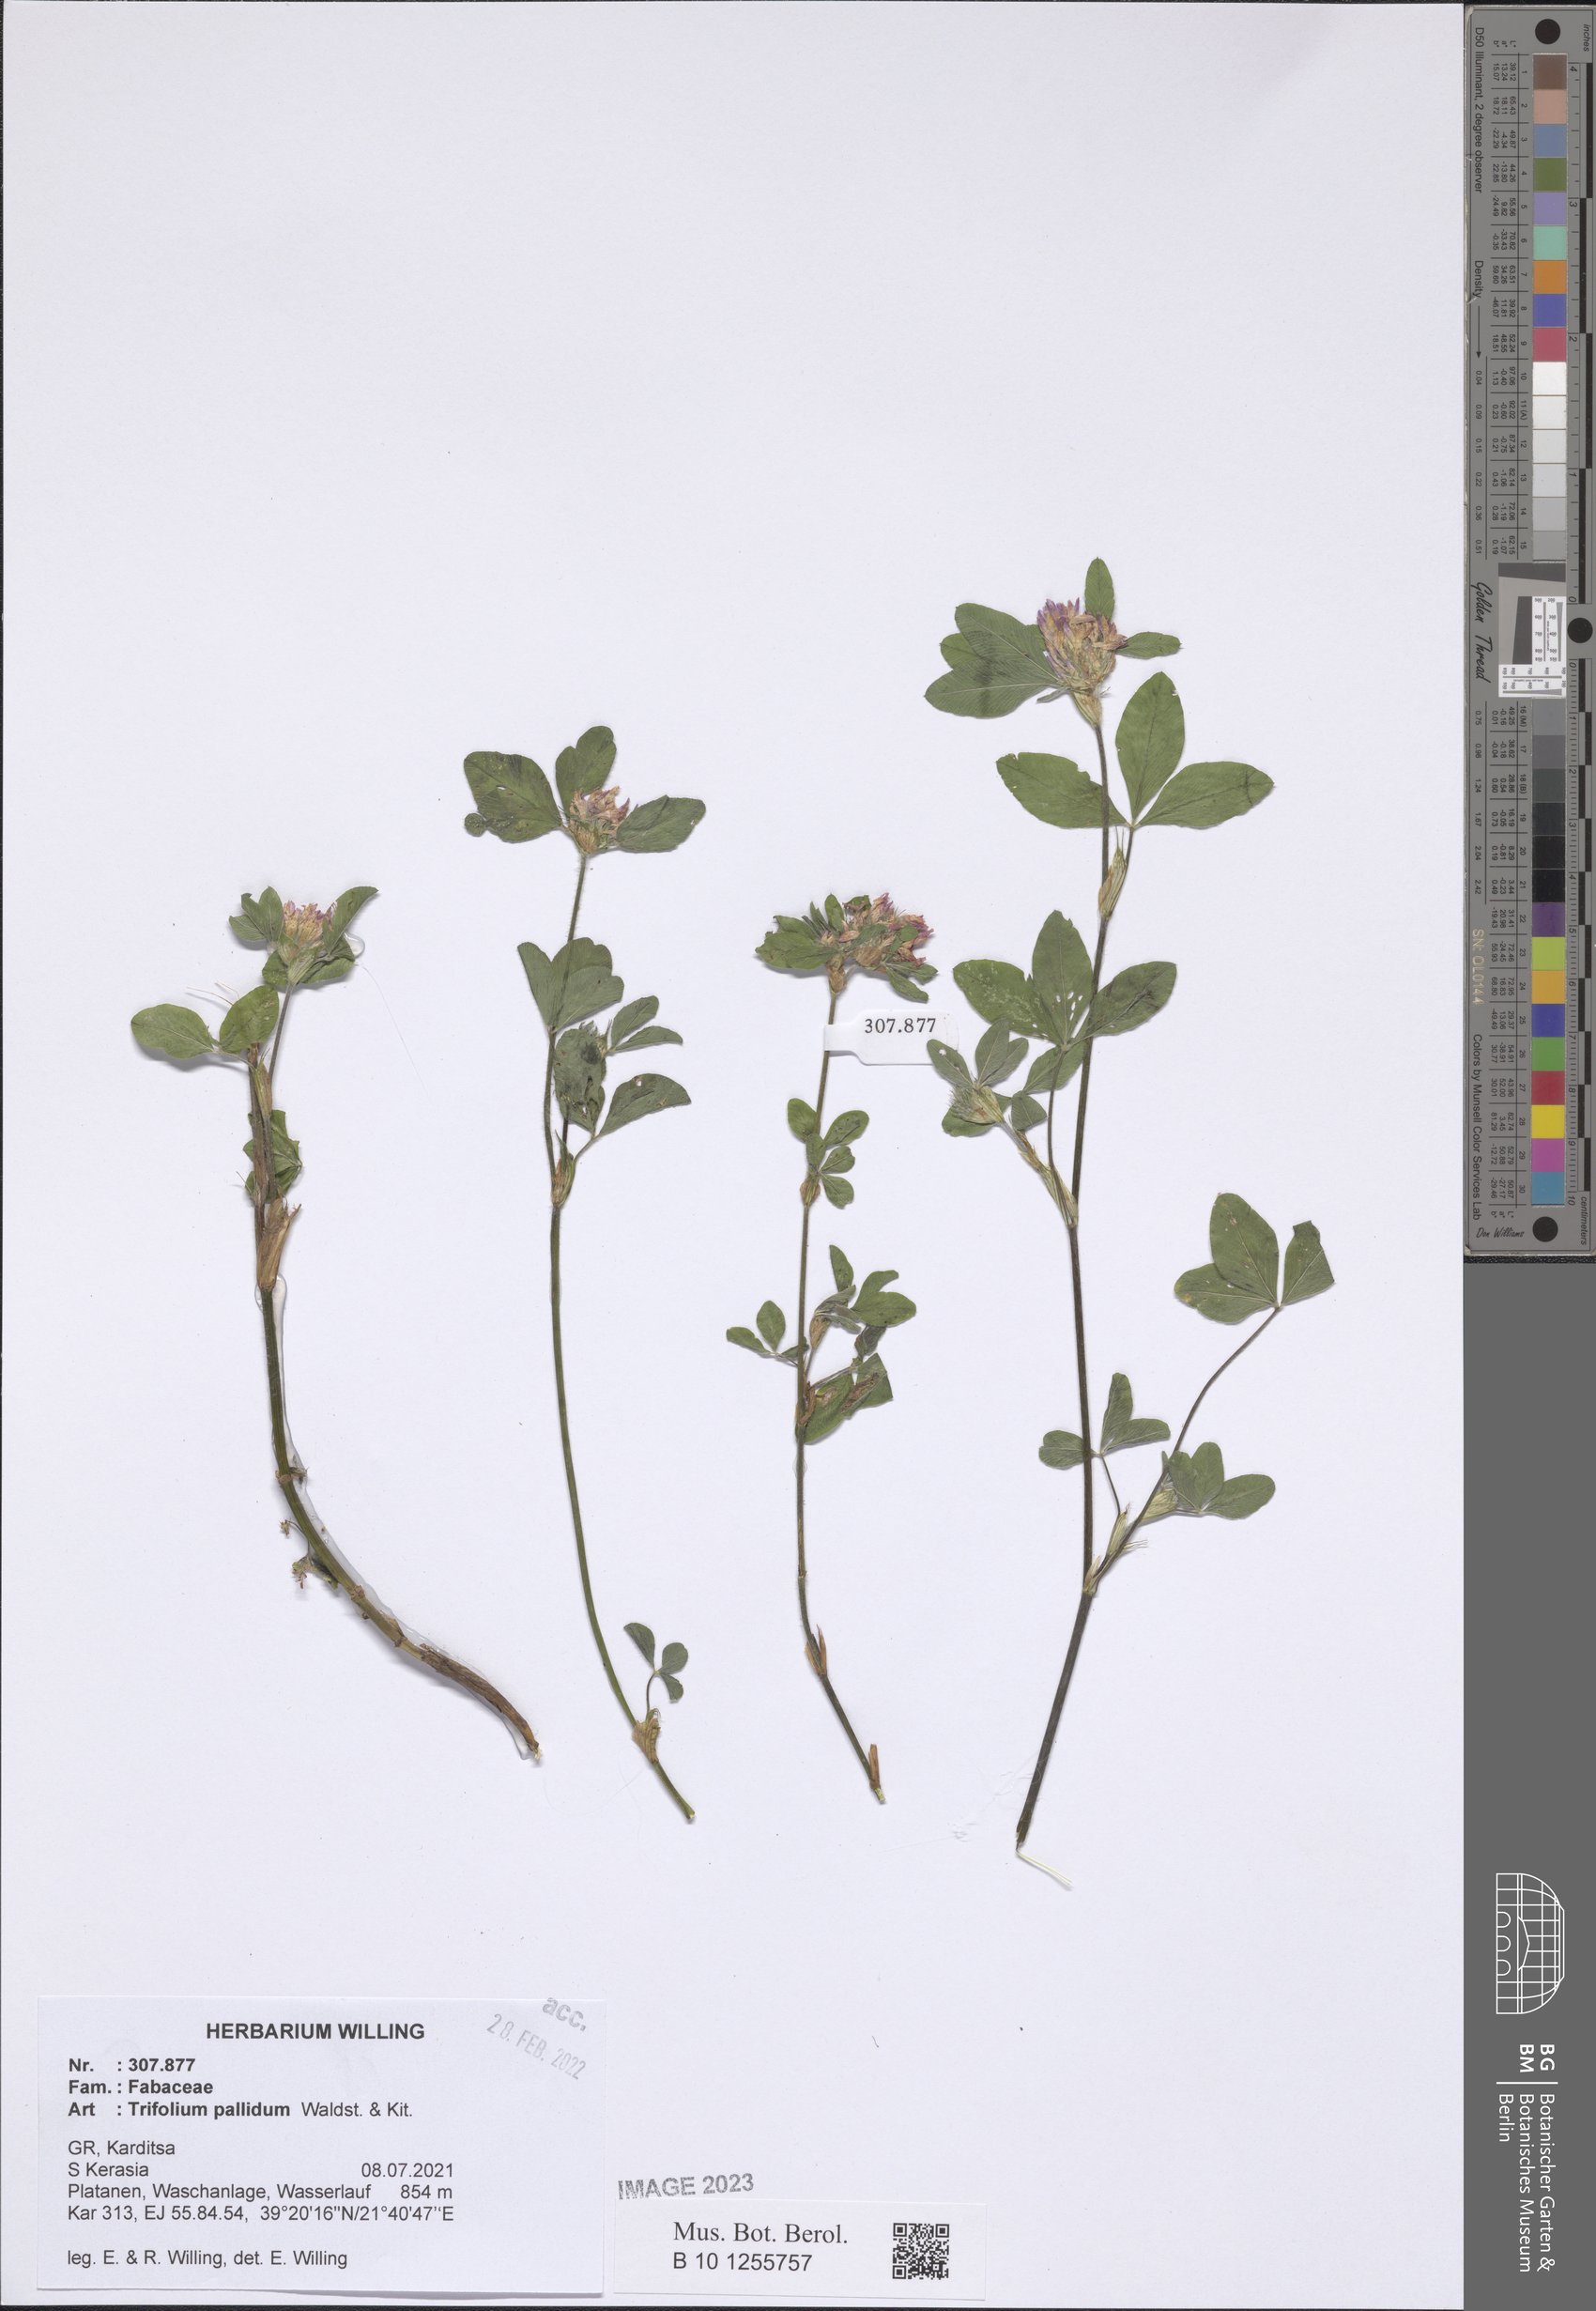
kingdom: Plantae
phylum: Tracheophyta
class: Magnoliopsida
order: Fabales
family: Fabaceae
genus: Trifolium
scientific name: Trifolium pallidum
